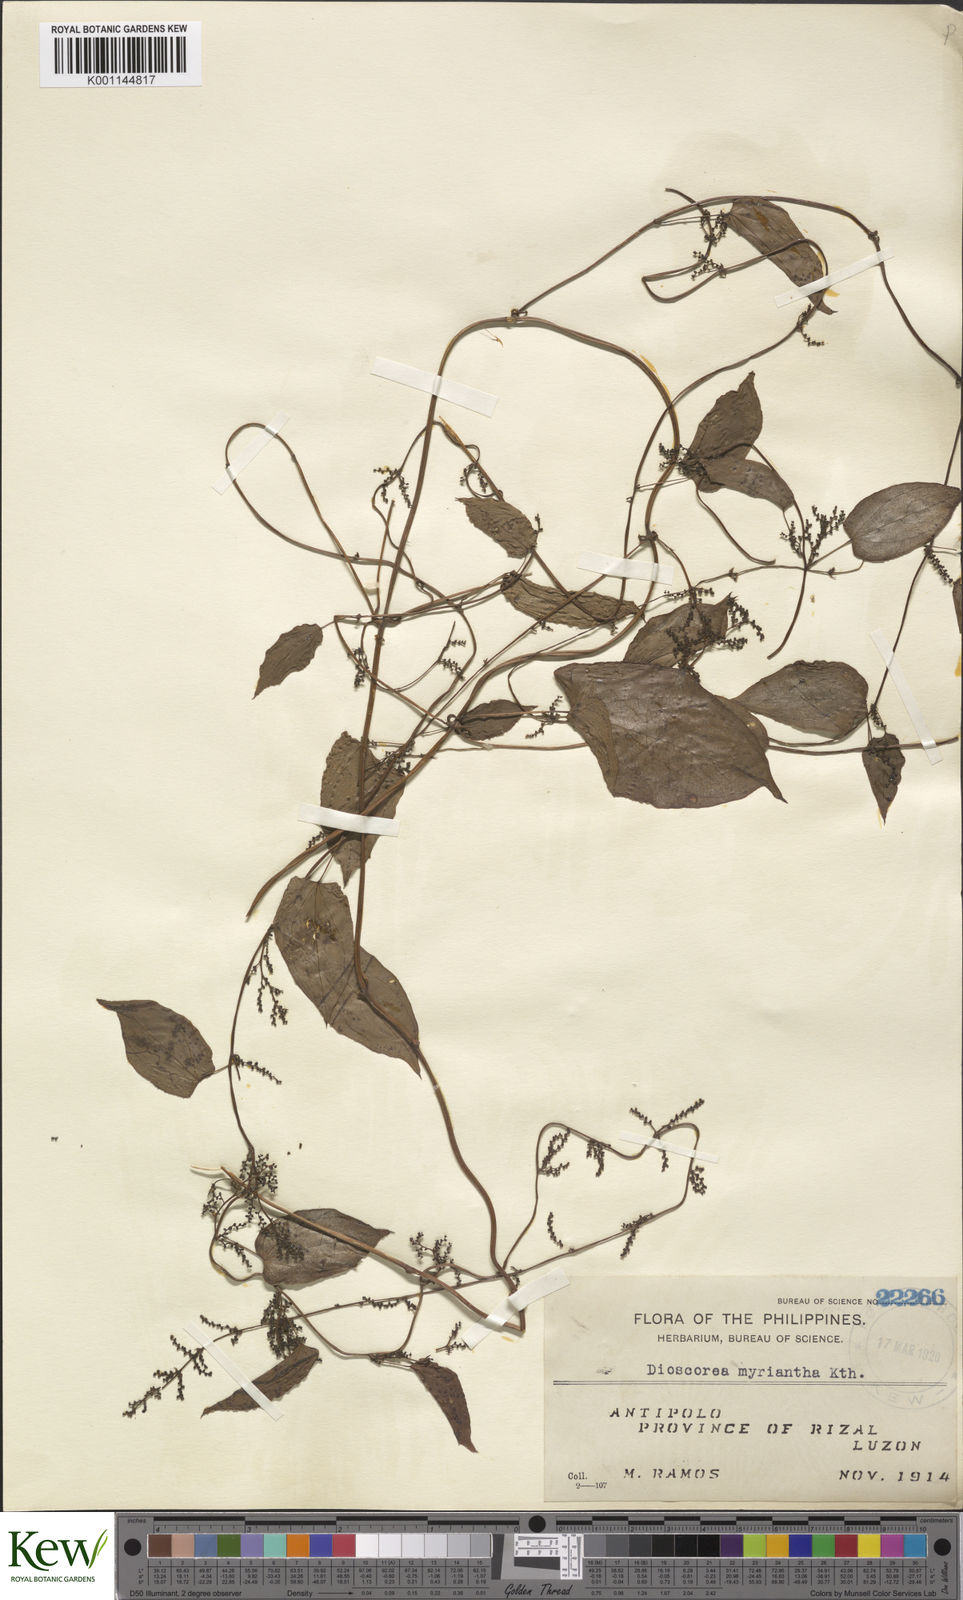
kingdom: Plantae
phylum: Tracheophyta
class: Liliopsida
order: Dioscoreales
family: Dioscoreaceae
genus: Dioscorea
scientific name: Dioscorea filiformis
